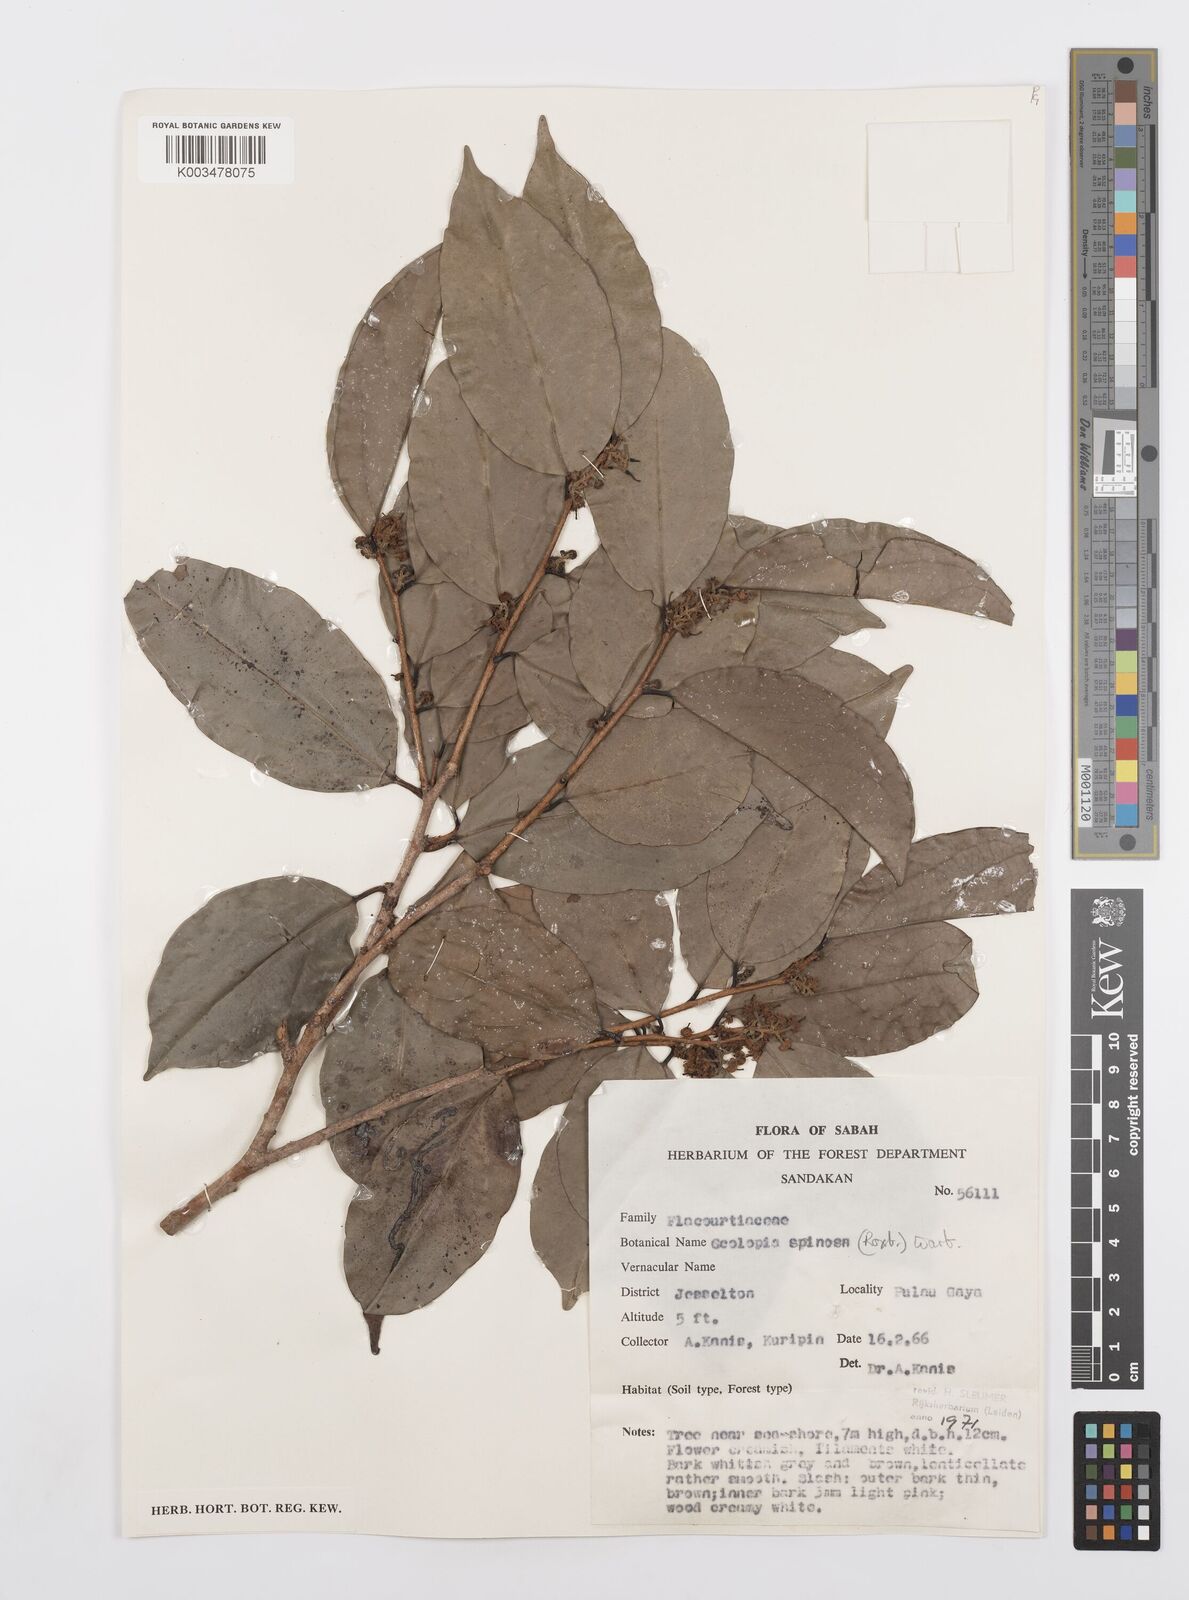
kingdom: Plantae
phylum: Tracheophyta
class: Magnoliopsida
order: Malpighiales
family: Salicaceae
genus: Scolopia
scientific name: Scolopia spinosa
